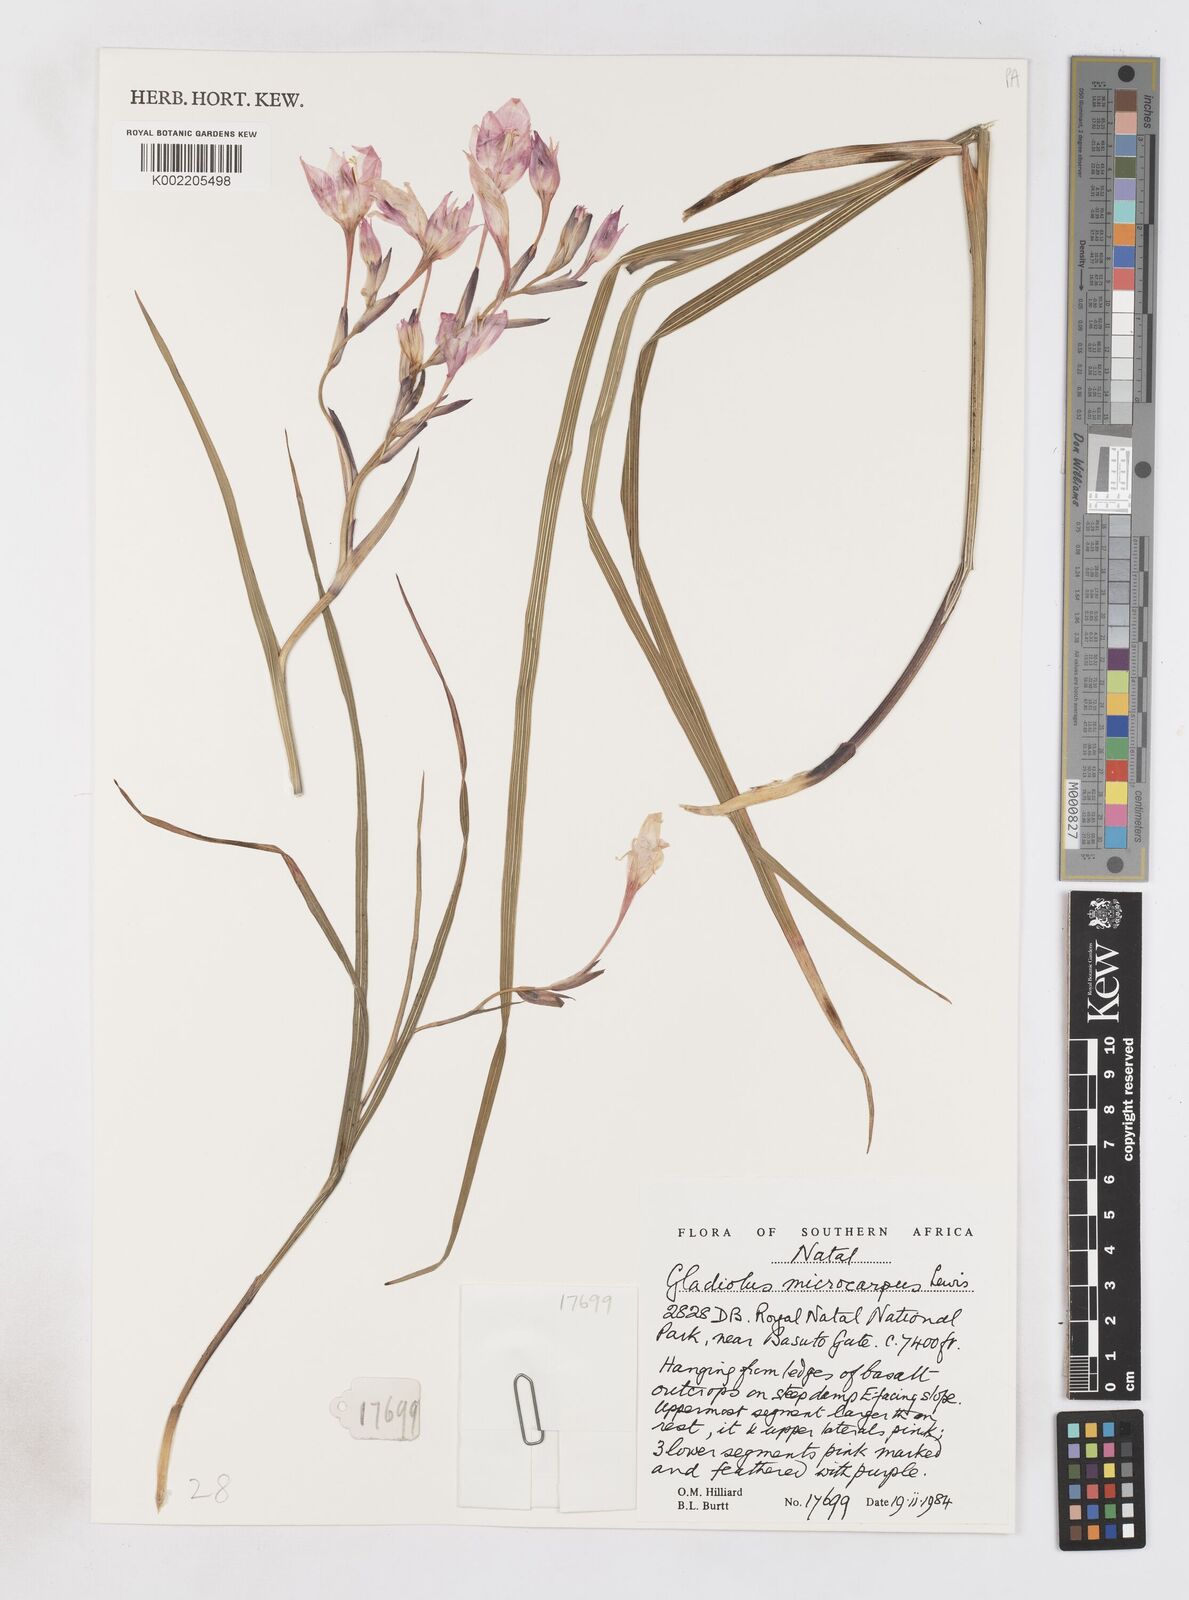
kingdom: Plantae
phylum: Tracheophyta
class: Liliopsida
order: Asparagales
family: Iridaceae
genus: Gladiolus
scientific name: Gladiolus microcarpus
